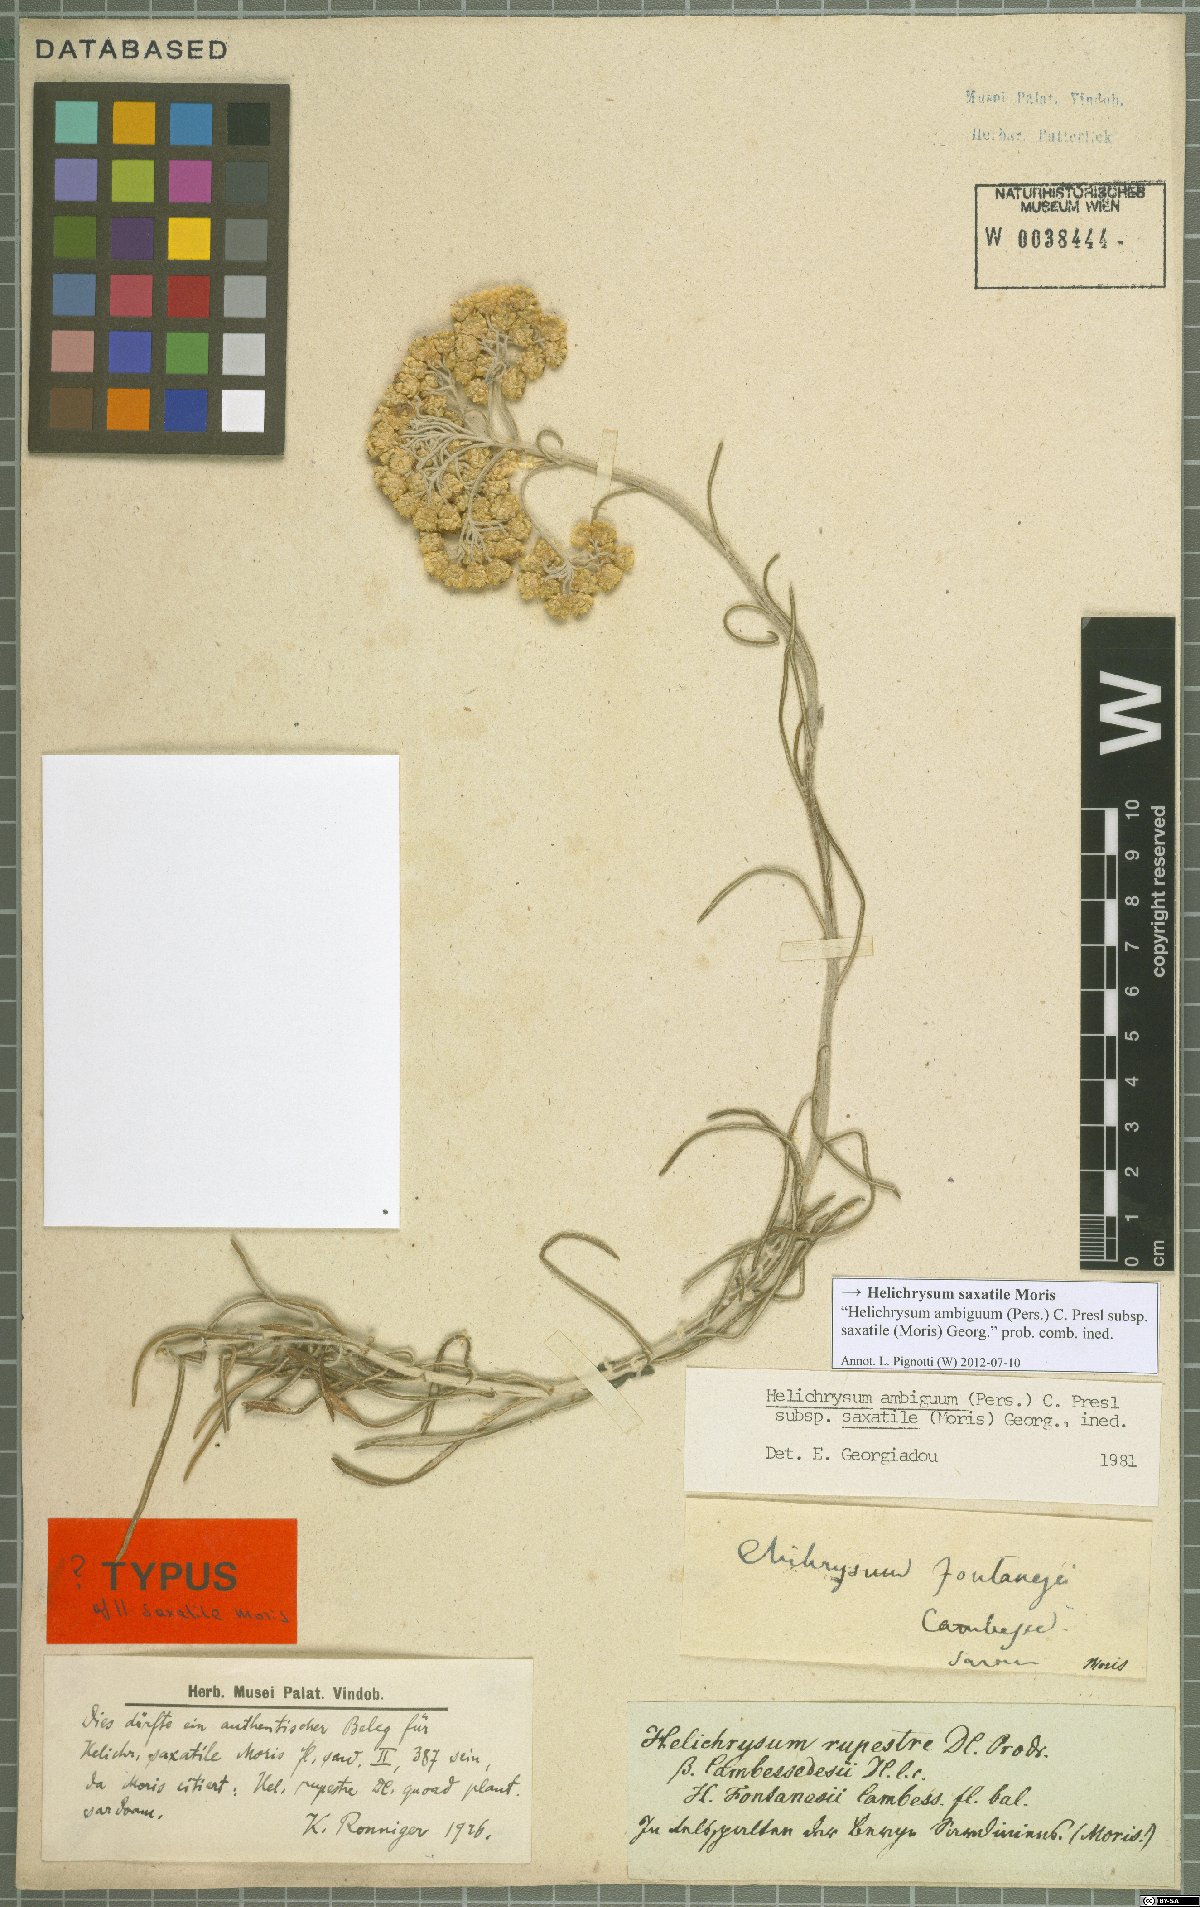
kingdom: Plantae
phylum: Tracheophyta
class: Magnoliopsida
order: Asterales
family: Asteraceae
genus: Helichrysum
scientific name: Helichrysum saxatile
